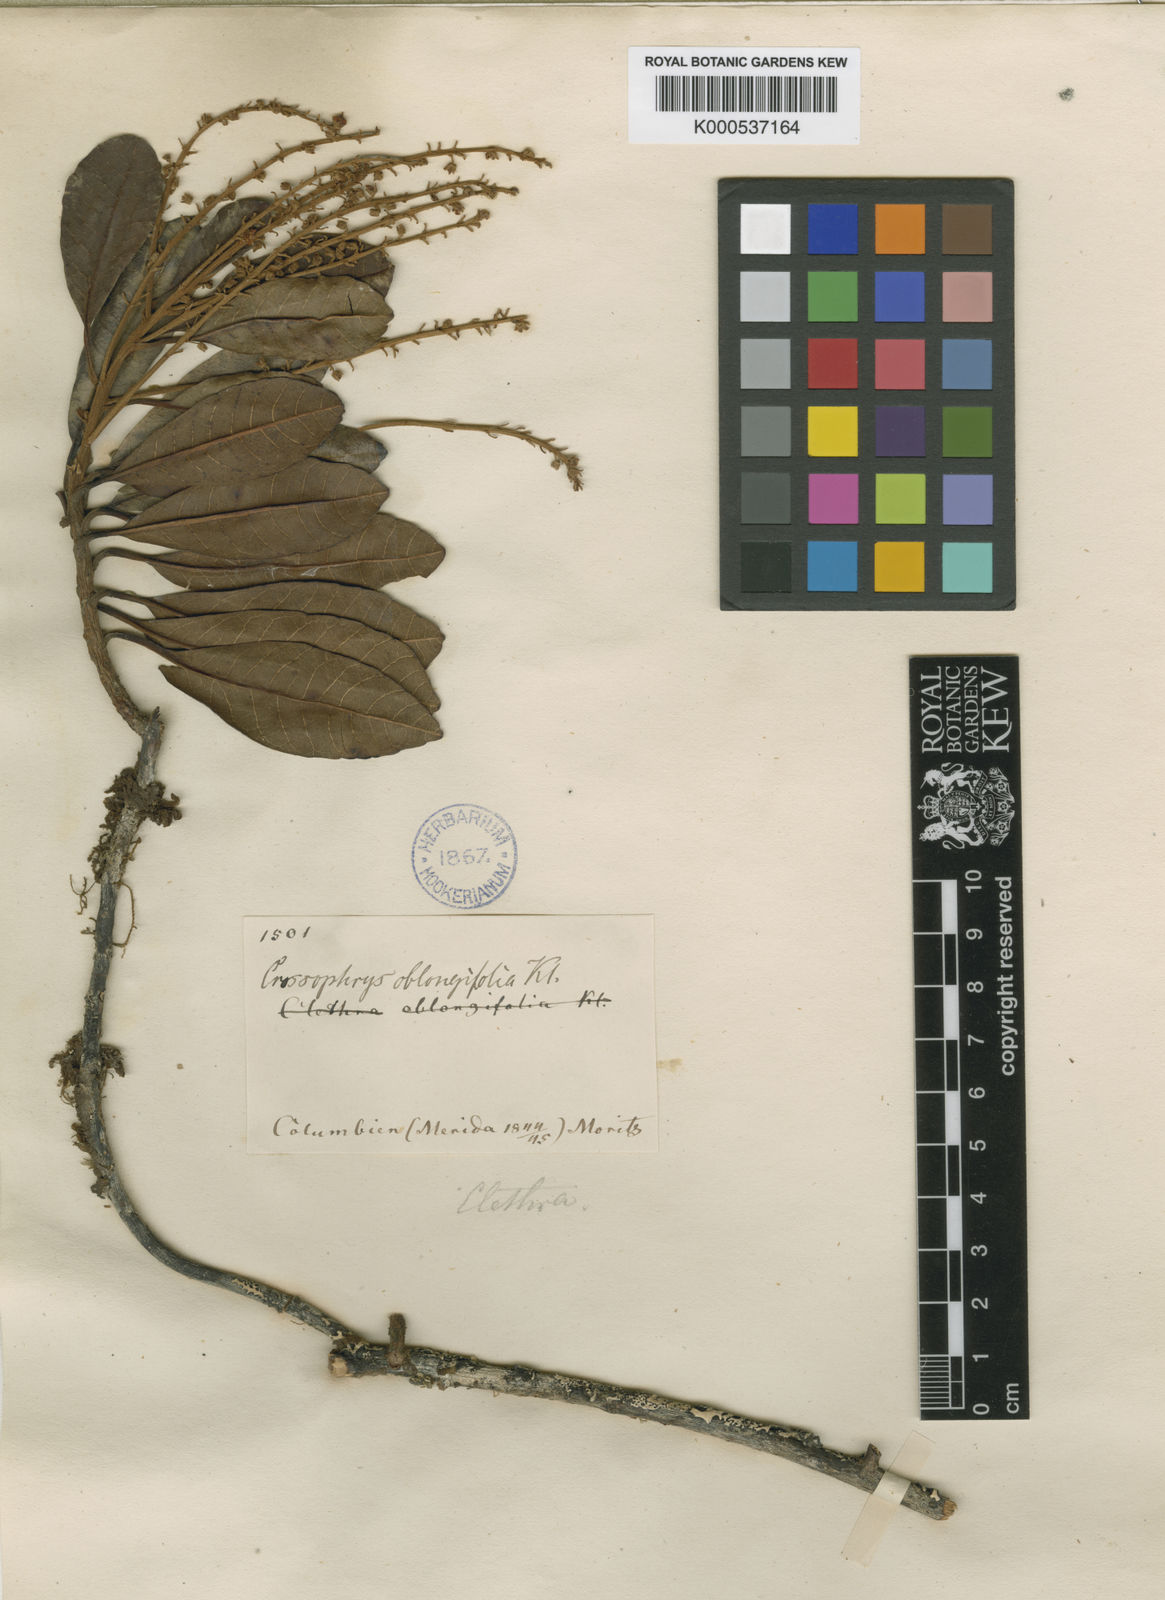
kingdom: Plantae
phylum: Tracheophyta
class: Magnoliopsida
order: Ericales
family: Clethraceae
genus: Clethra
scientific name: Clethra
